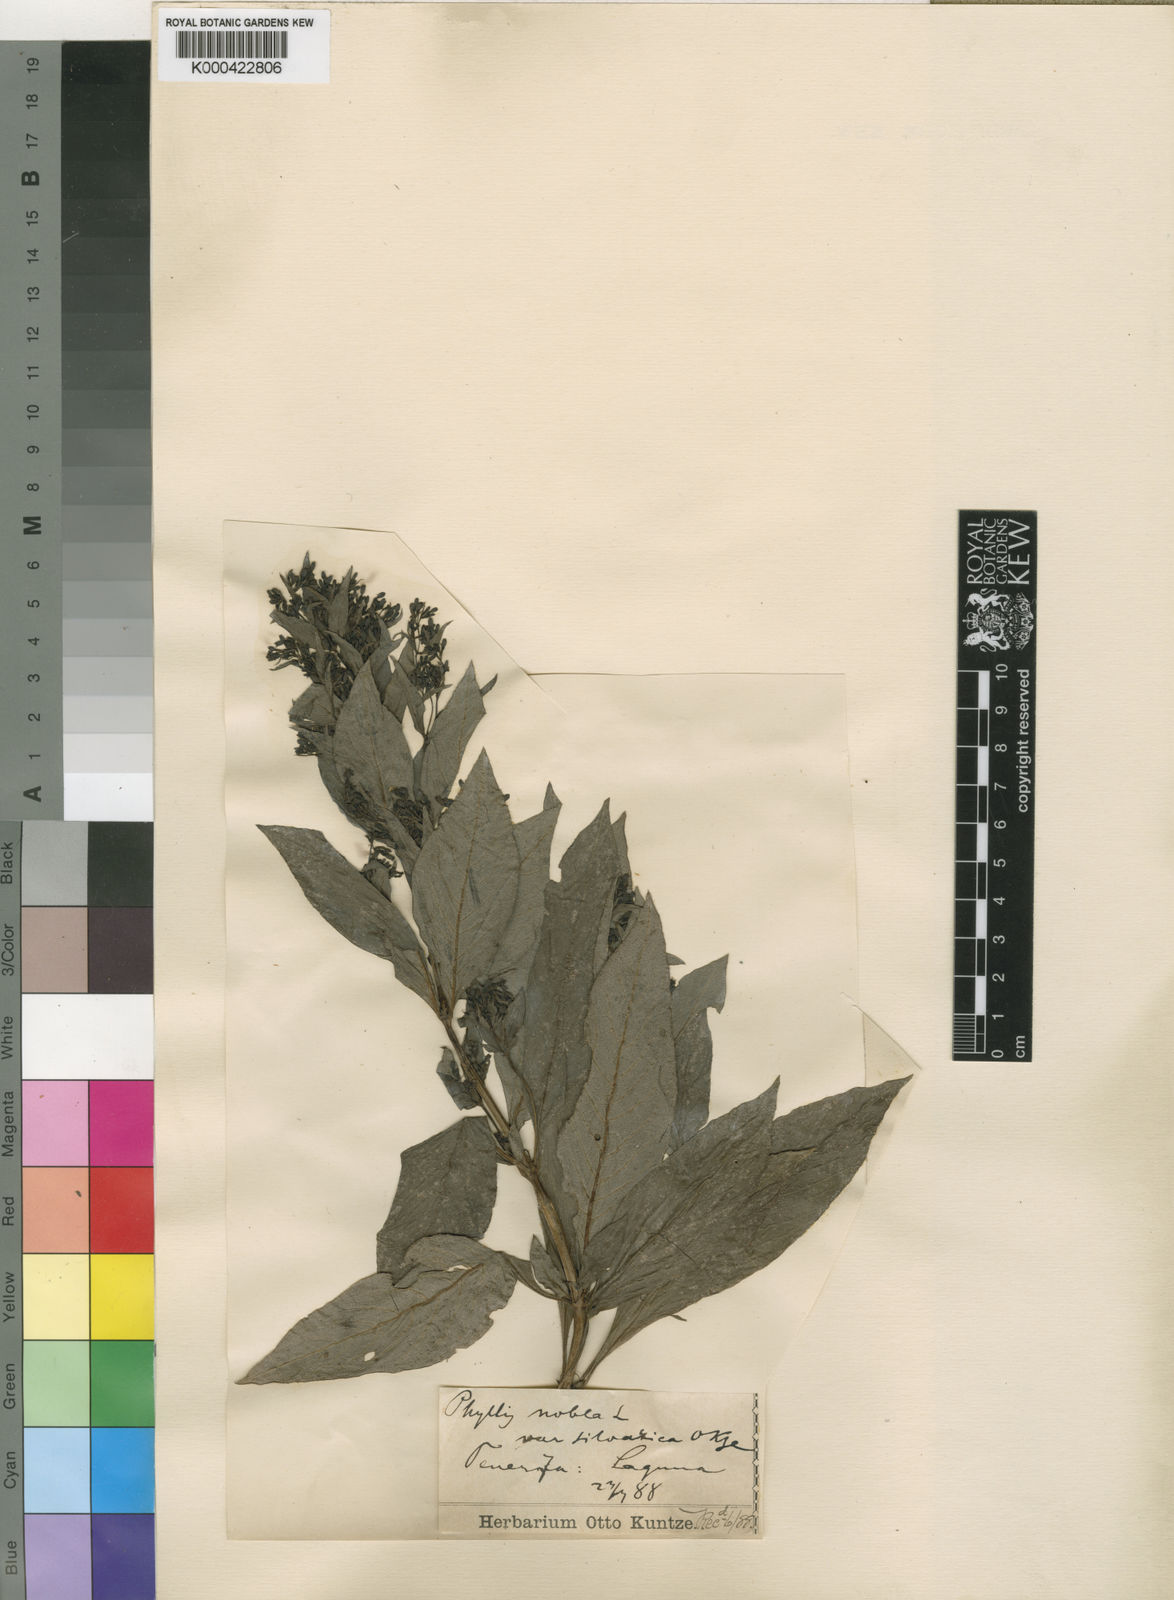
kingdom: Plantae
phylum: Tracheophyta
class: Magnoliopsida
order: Gentianales
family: Rubiaceae
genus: Phyllis
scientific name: Phyllis nobla
